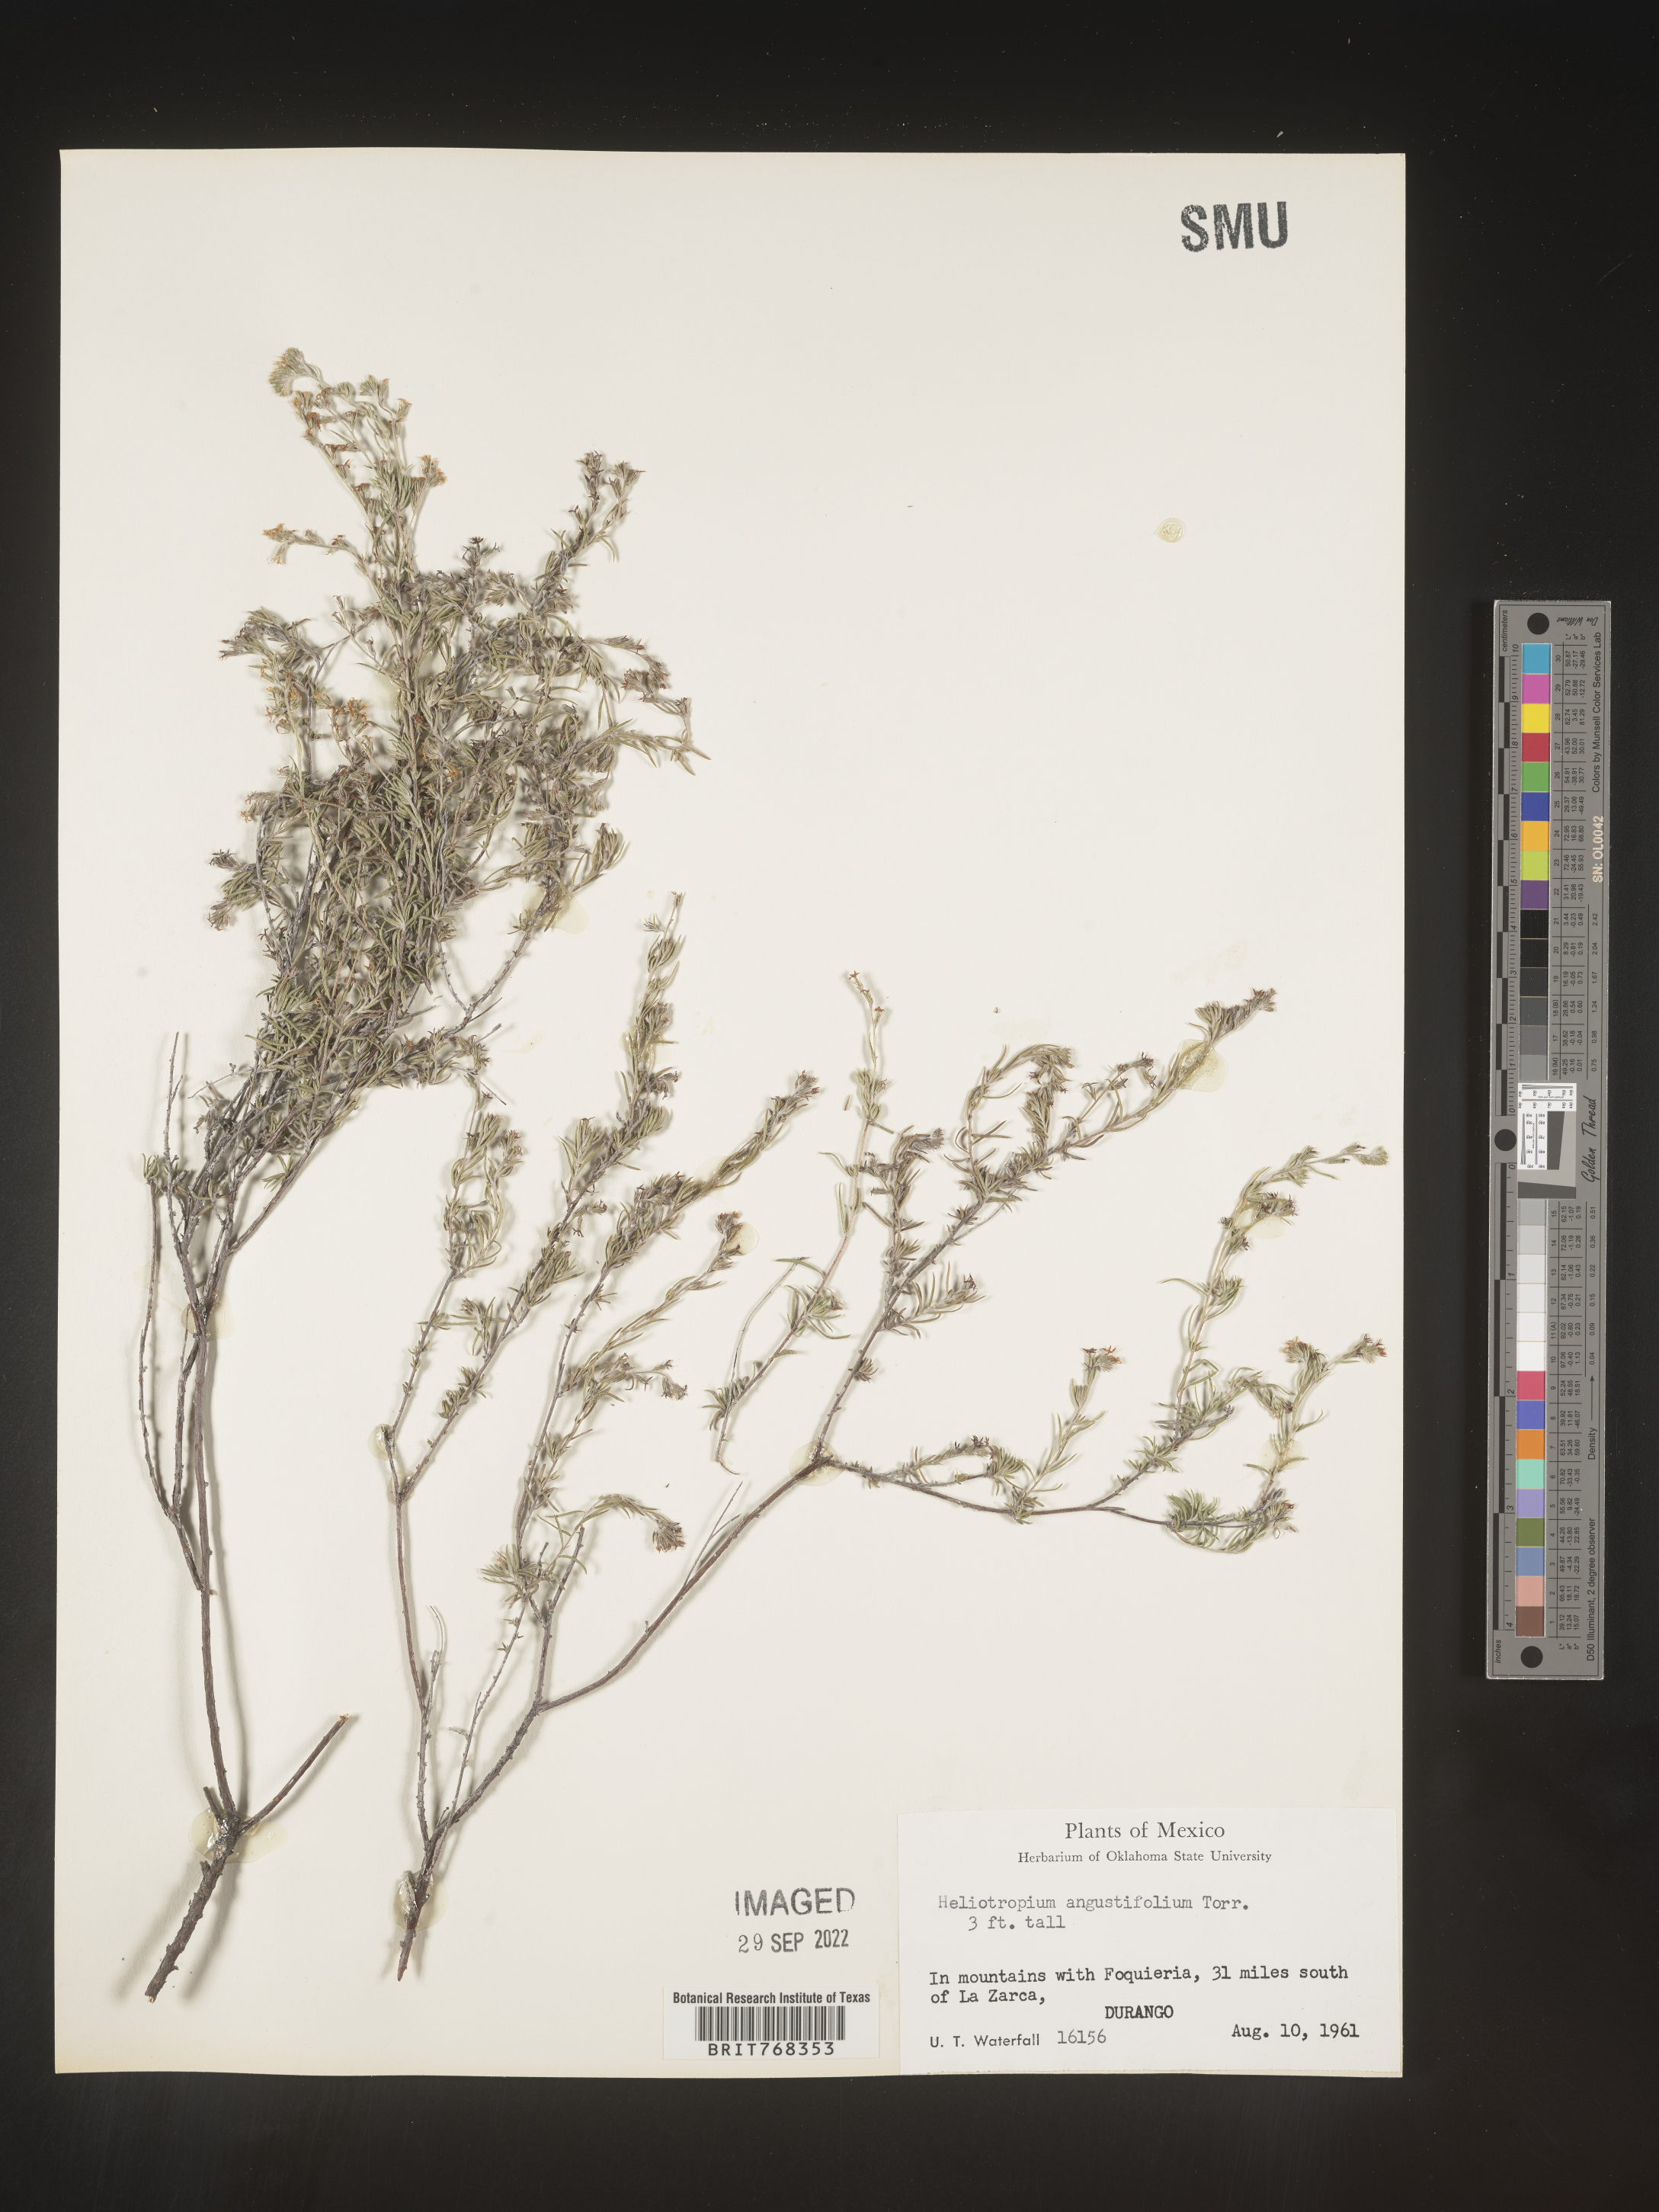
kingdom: Plantae
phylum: Tracheophyta
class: Magnoliopsida
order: Boraginales
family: Heliotropiaceae
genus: Heliotropium
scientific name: Heliotropium
